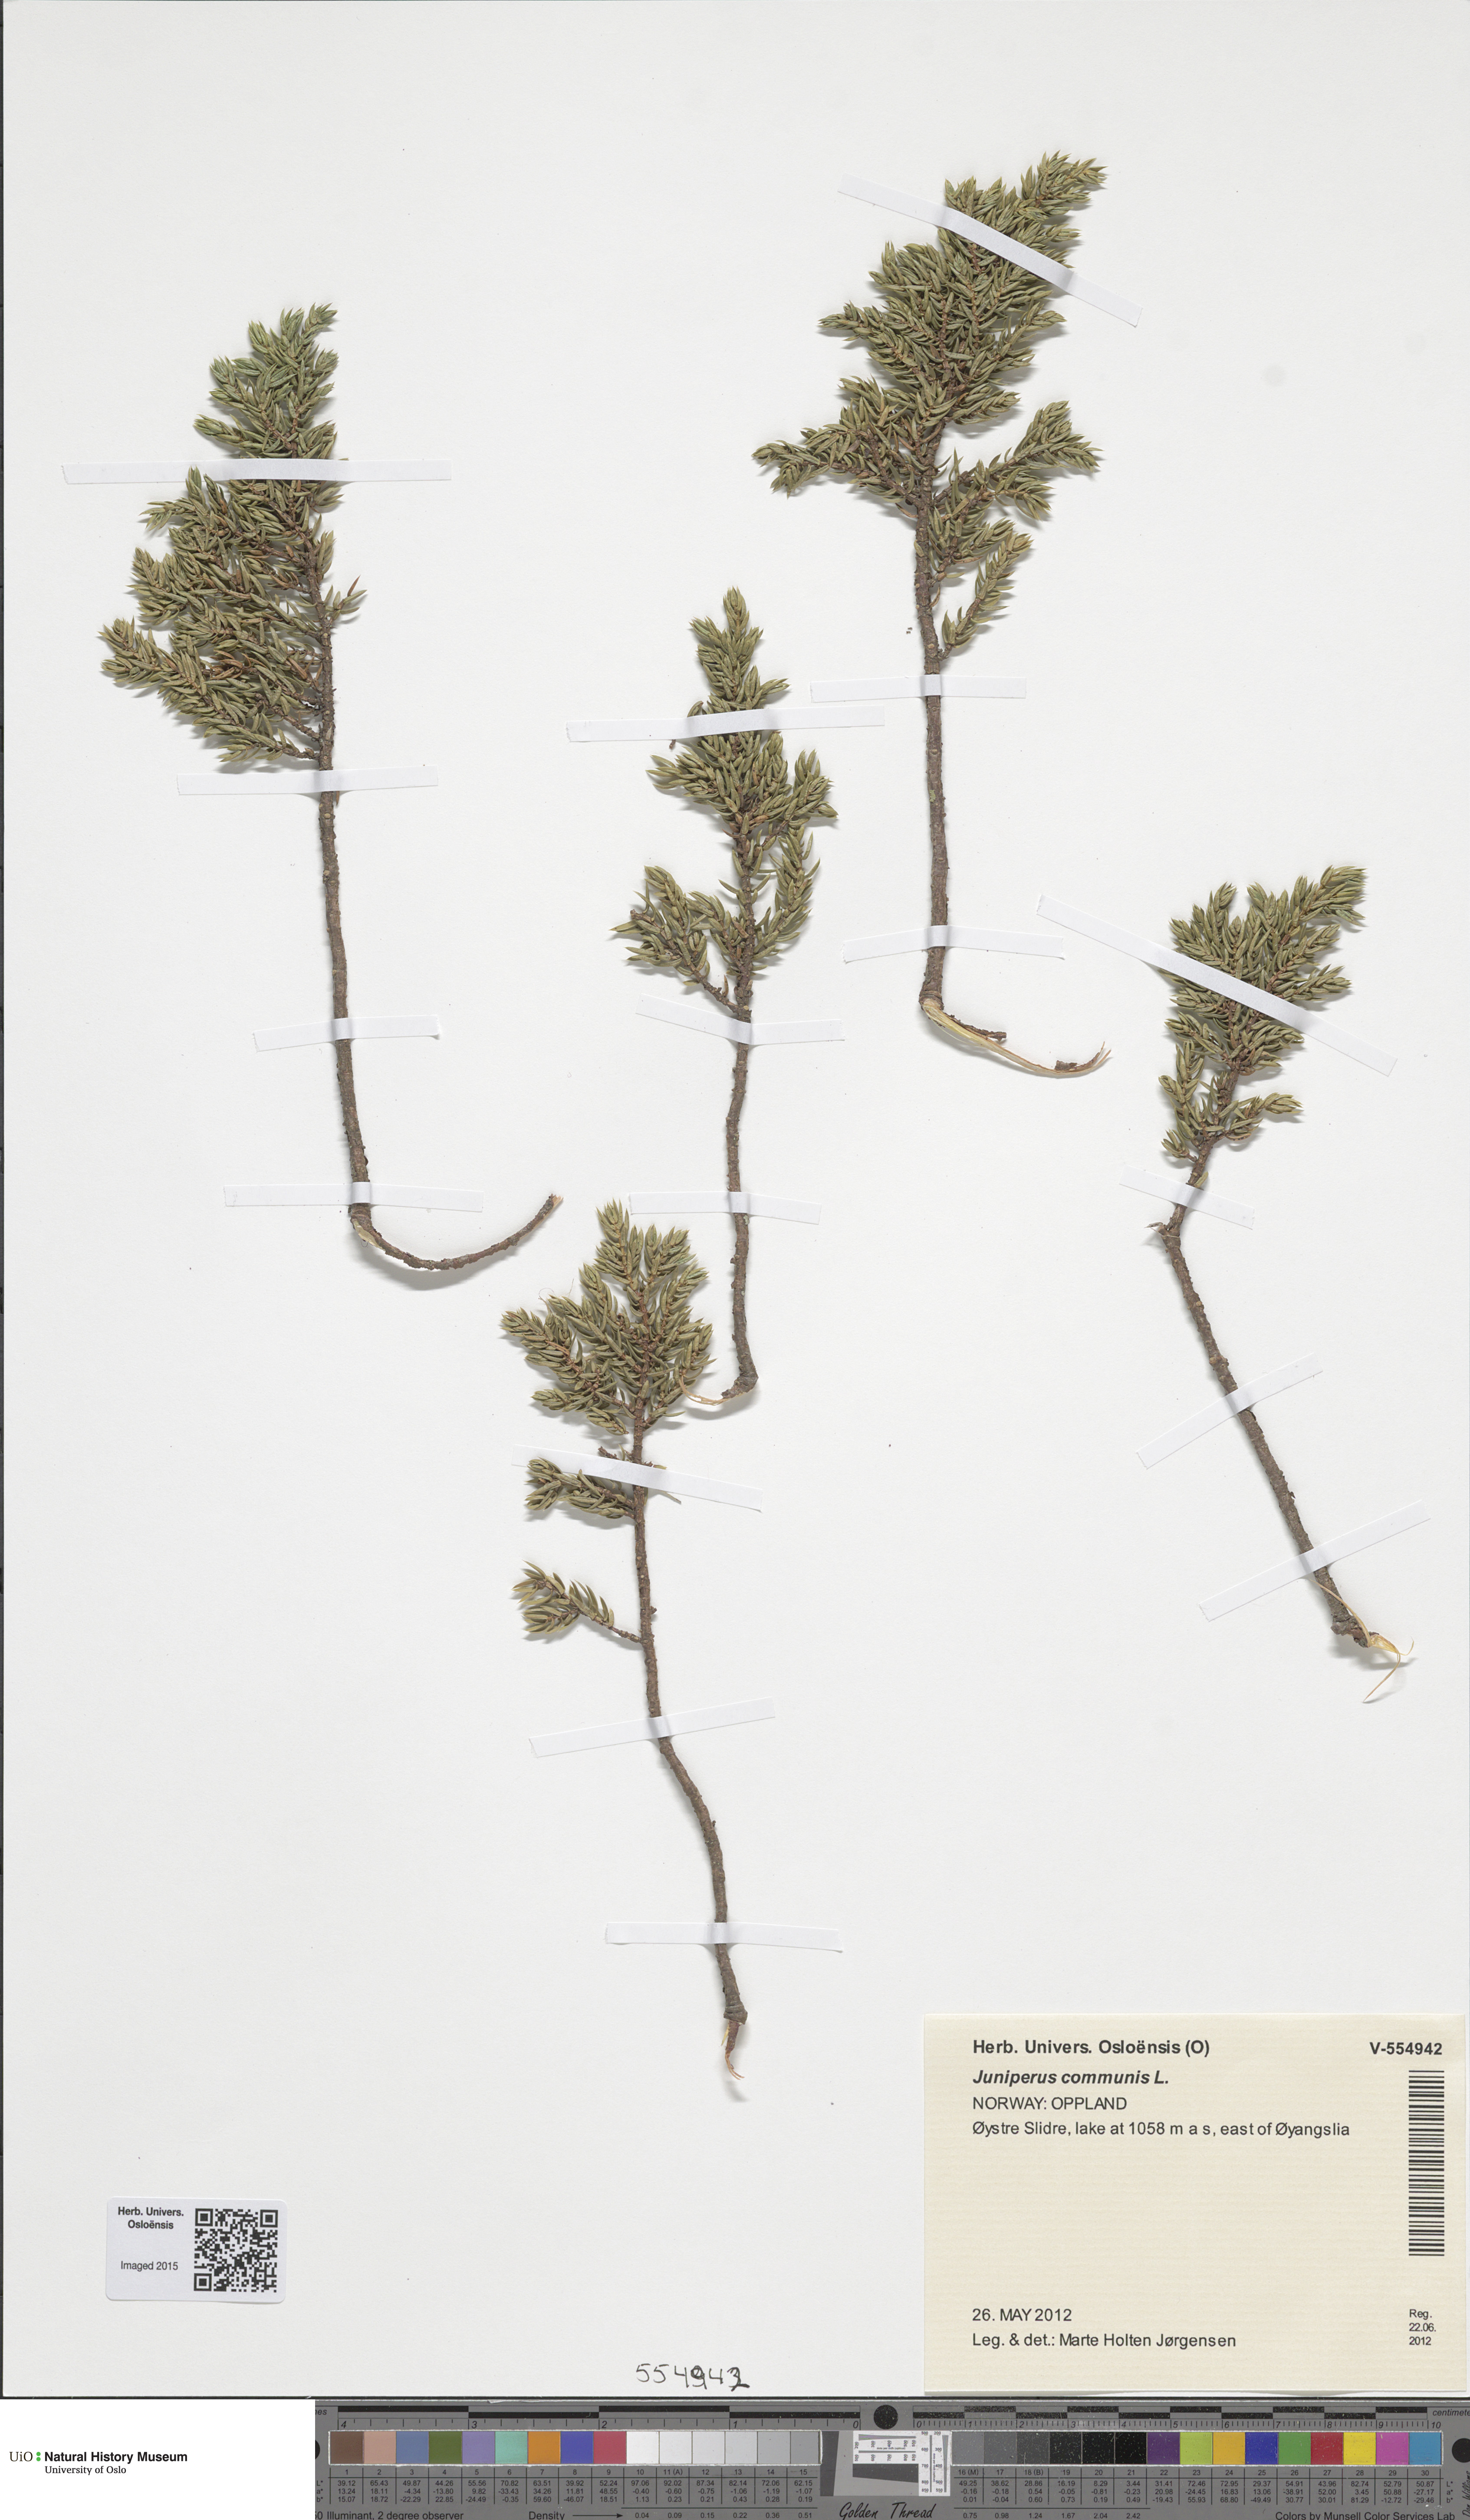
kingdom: Plantae
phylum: Tracheophyta
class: Pinopsida
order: Pinales
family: Cupressaceae
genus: Juniperus
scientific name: Juniperus communis
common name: Common juniper
